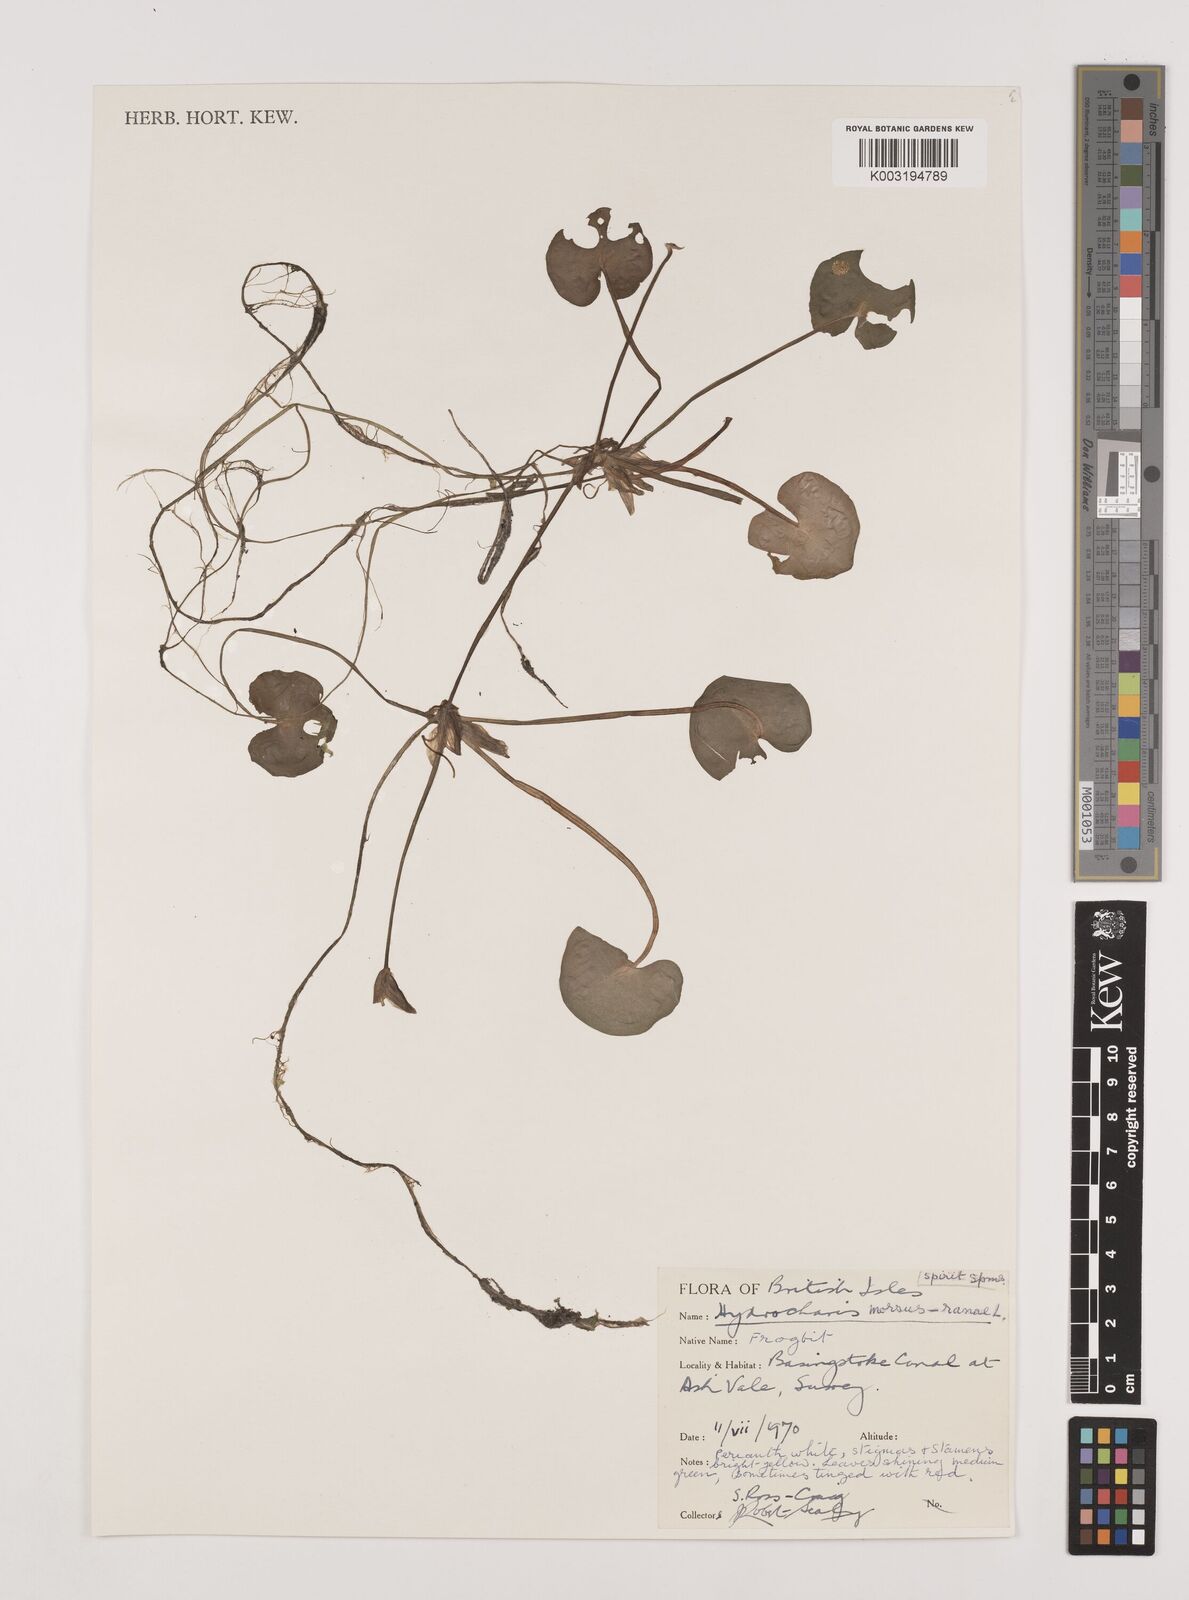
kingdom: Plantae
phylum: Tracheophyta
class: Liliopsida
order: Alismatales
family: Hydrocharitaceae
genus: Hydrocharis
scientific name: Hydrocharis morsus-ranae
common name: Frogbit
